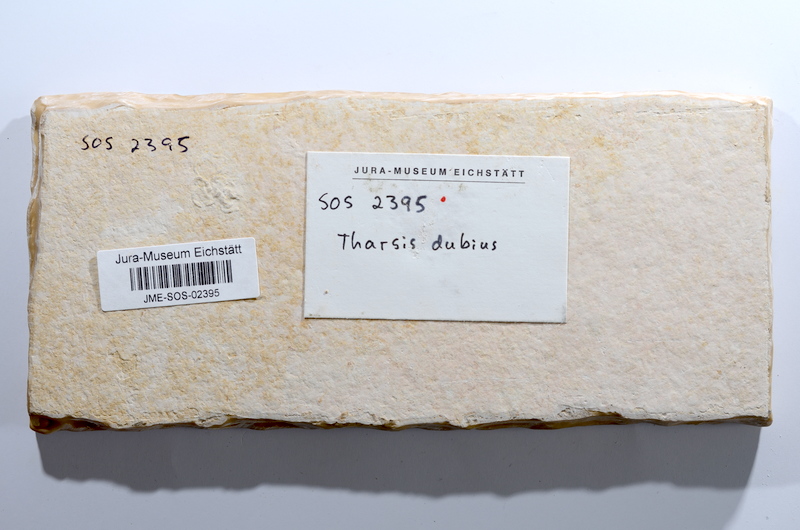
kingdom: Animalia
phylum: Chordata
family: Ascalaboidae
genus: Tharsis
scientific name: Tharsis dubius
